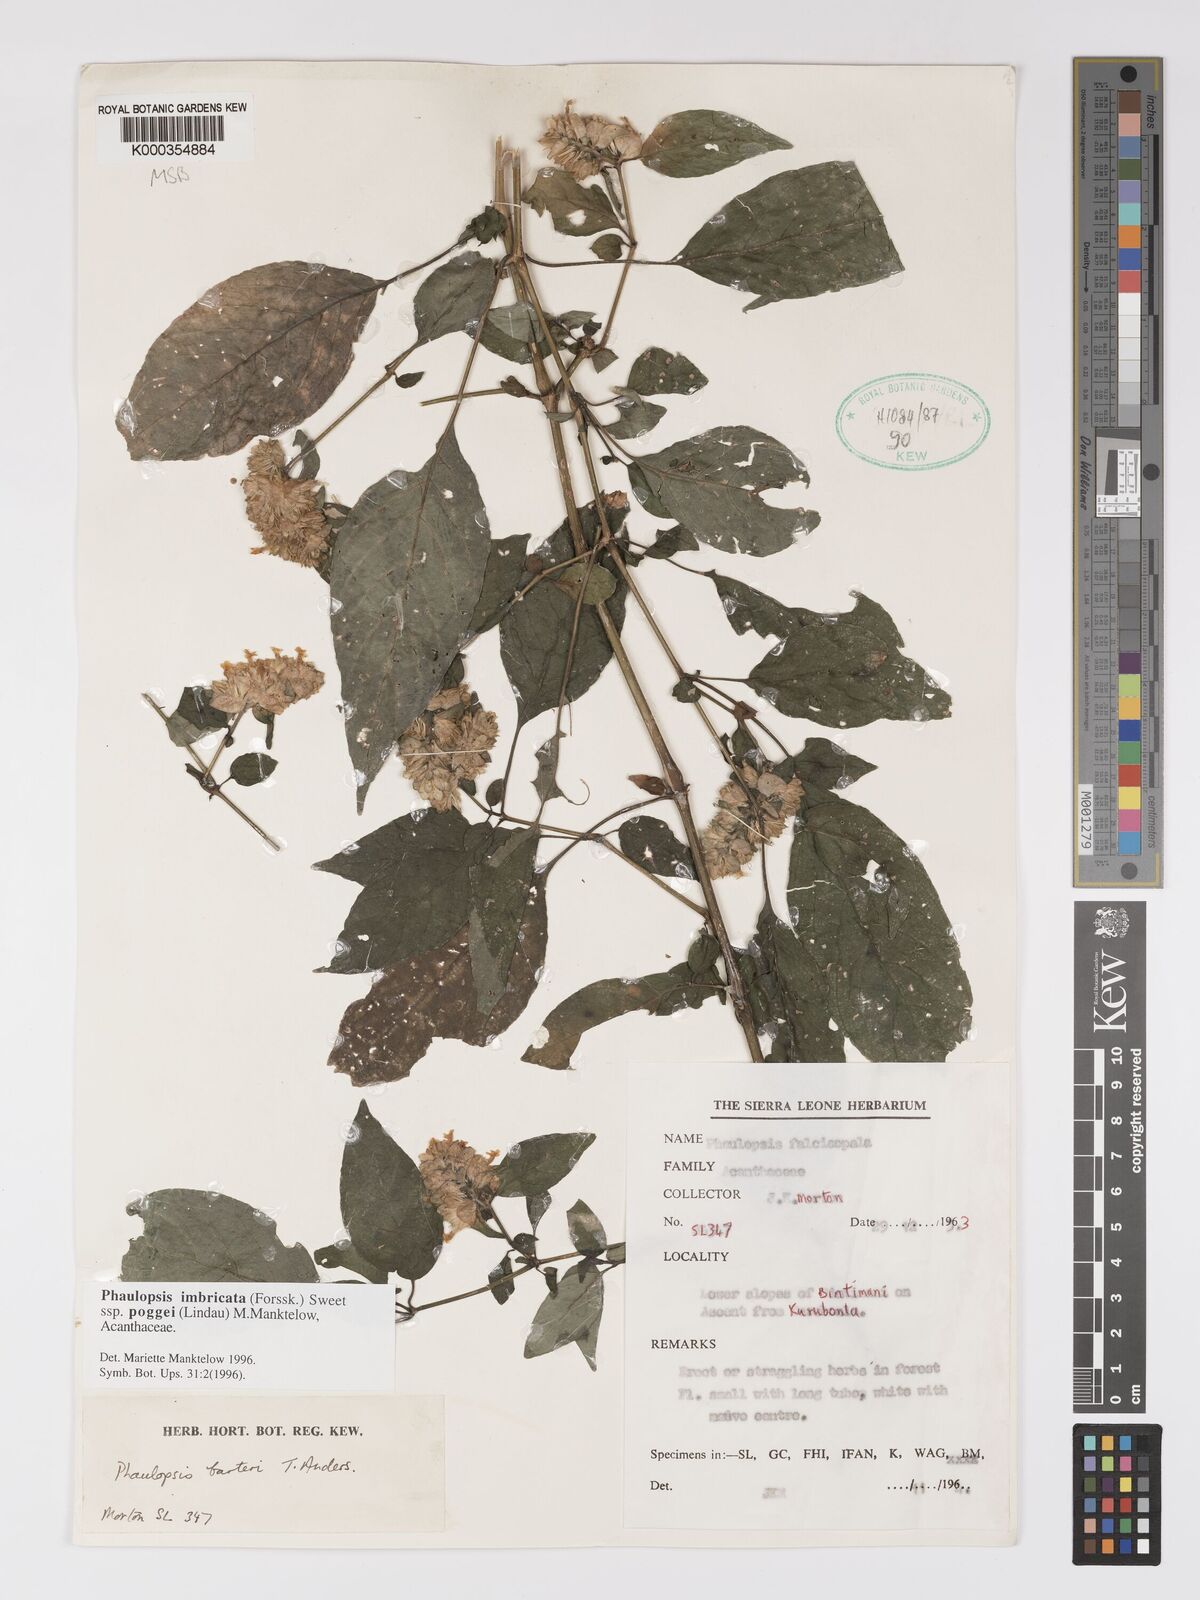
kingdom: Plantae
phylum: Tracheophyta
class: Magnoliopsida
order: Lamiales
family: Acanthaceae
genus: Phaulopsis
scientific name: Phaulopsis imbricata
